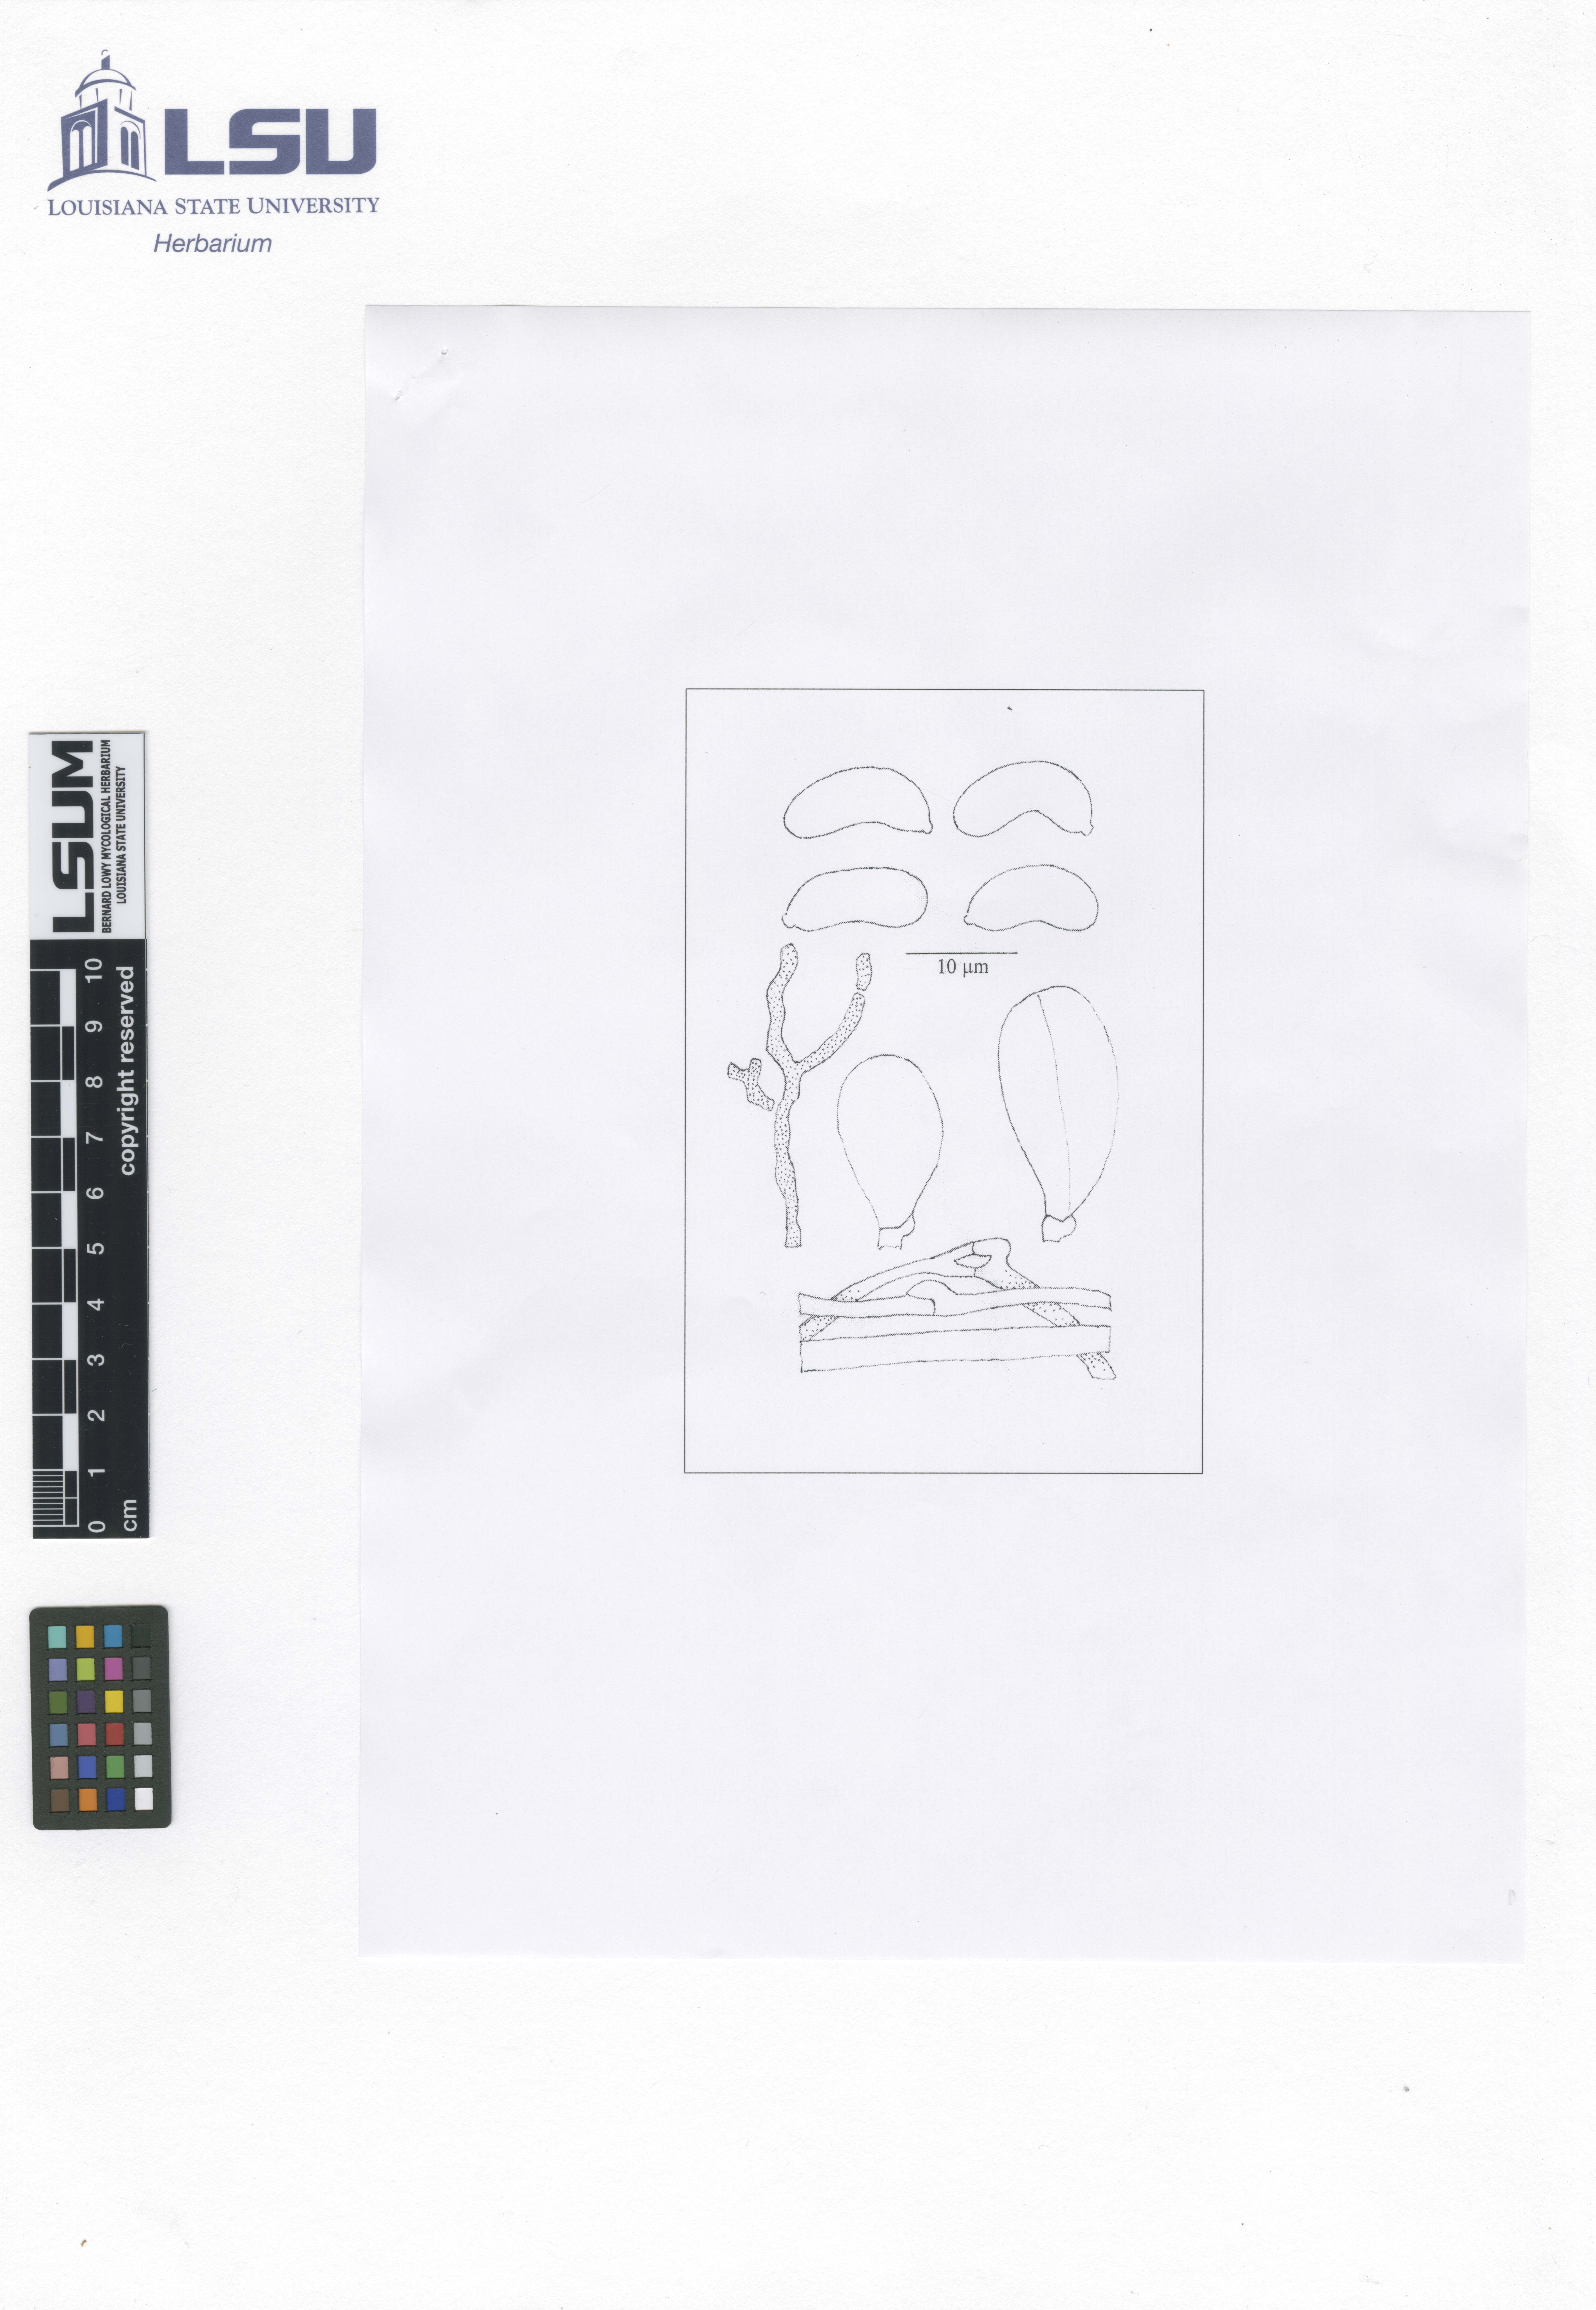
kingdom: Fungi
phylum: Basidiomycota
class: Agaricomycetes
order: Auriculariales
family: Auriculariaceae
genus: Exidia
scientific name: Exidia maya
